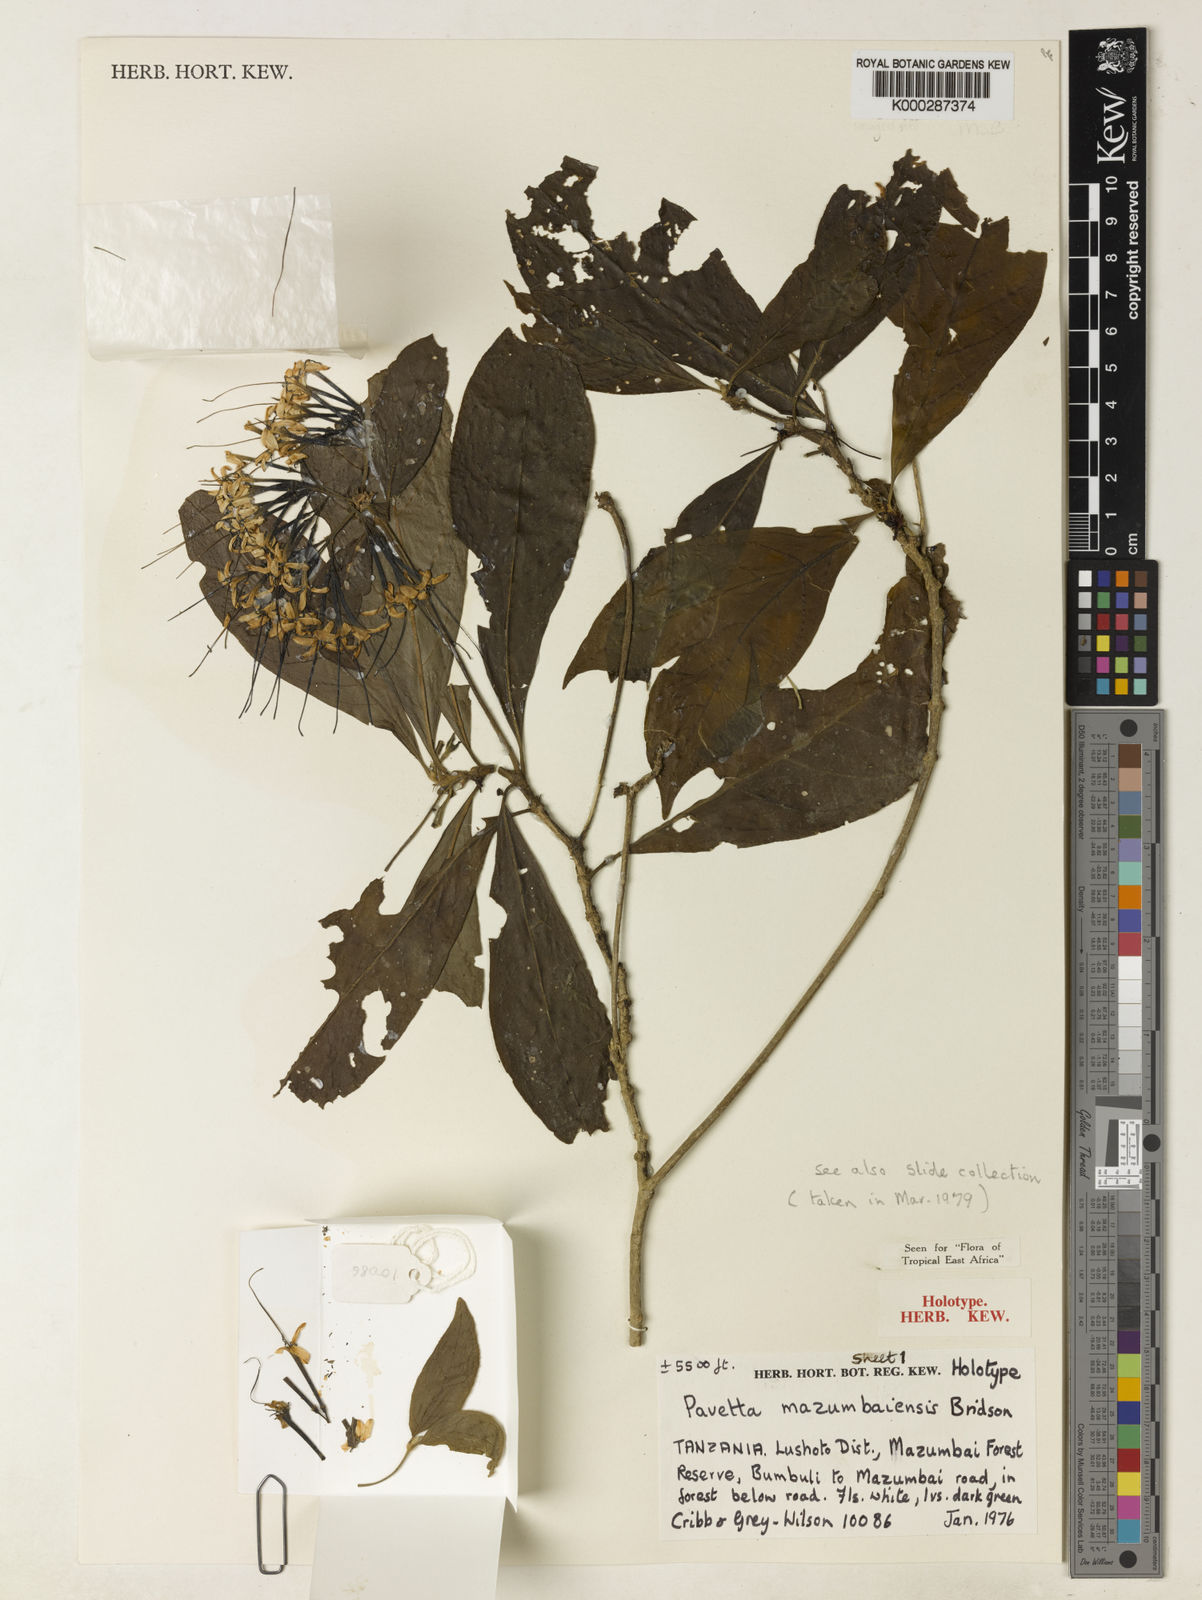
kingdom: Plantae
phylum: Tracheophyta
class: Magnoliopsida
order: Gentianales
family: Rubiaceae
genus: Pavetta
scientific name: Pavetta mazumbaiensis
